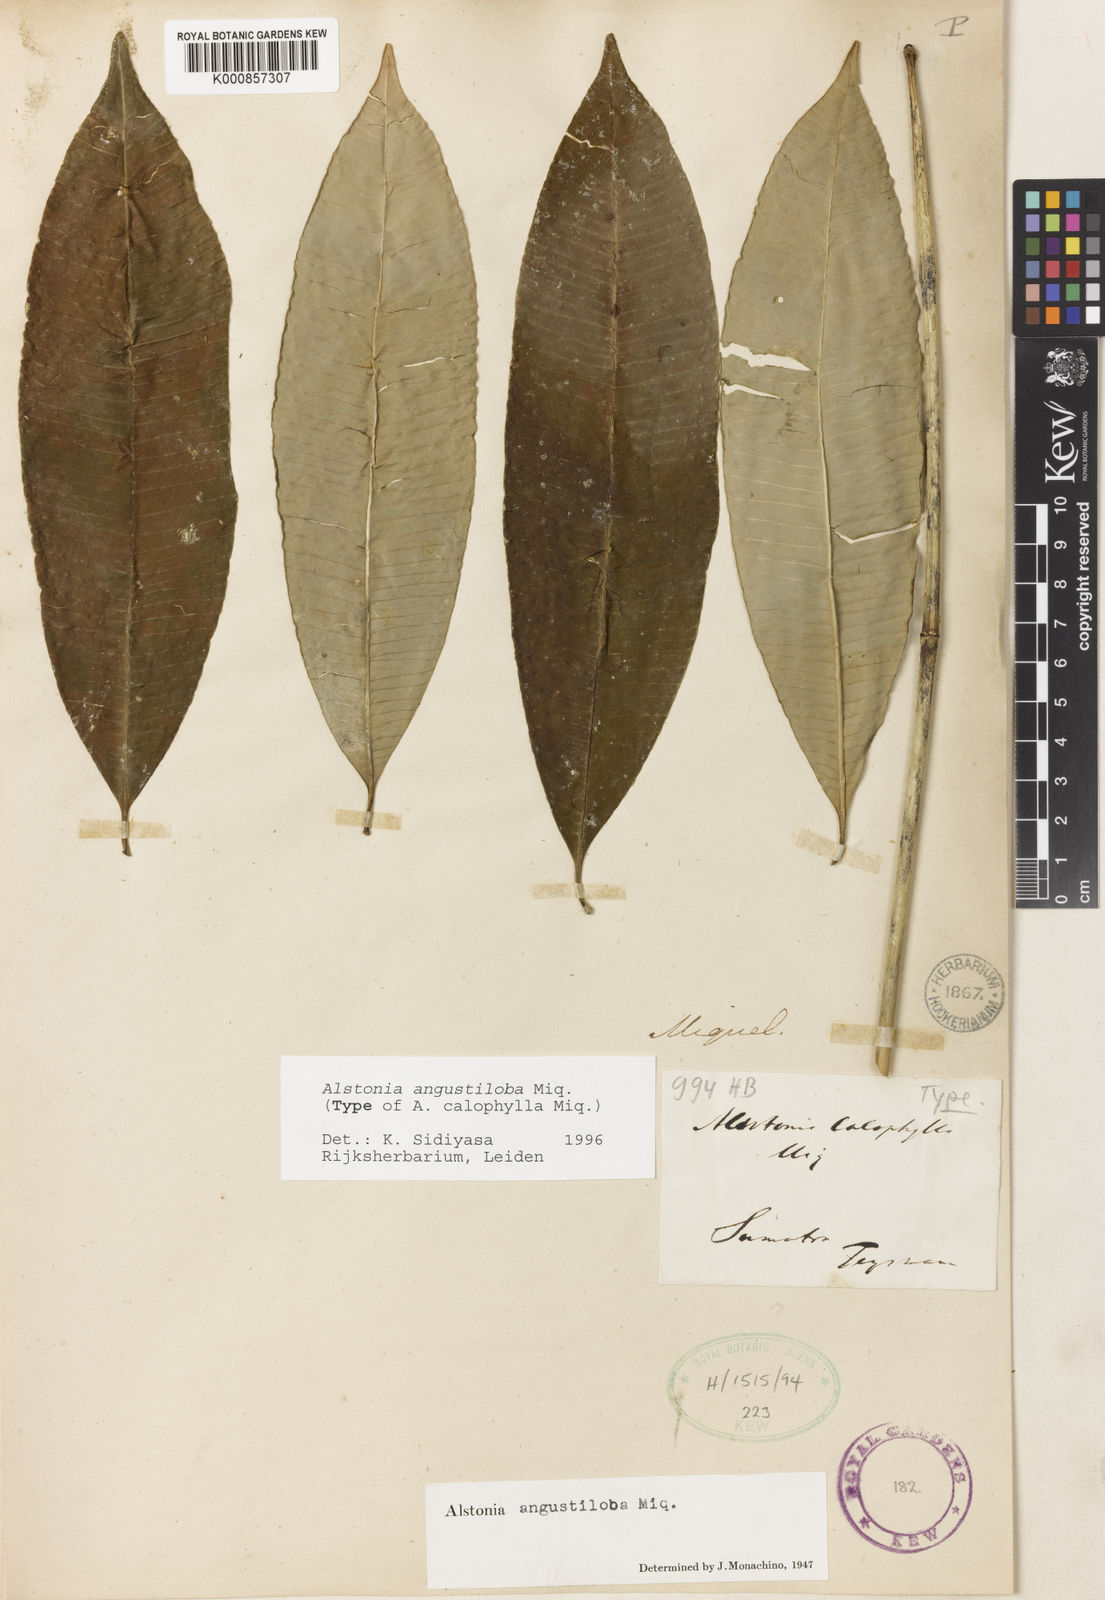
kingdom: Plantae
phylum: Tracheophyta
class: Magnoliopsida
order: Gentianales
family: Apocynaceae
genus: Alstonia
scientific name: Alstonia angustifolia
